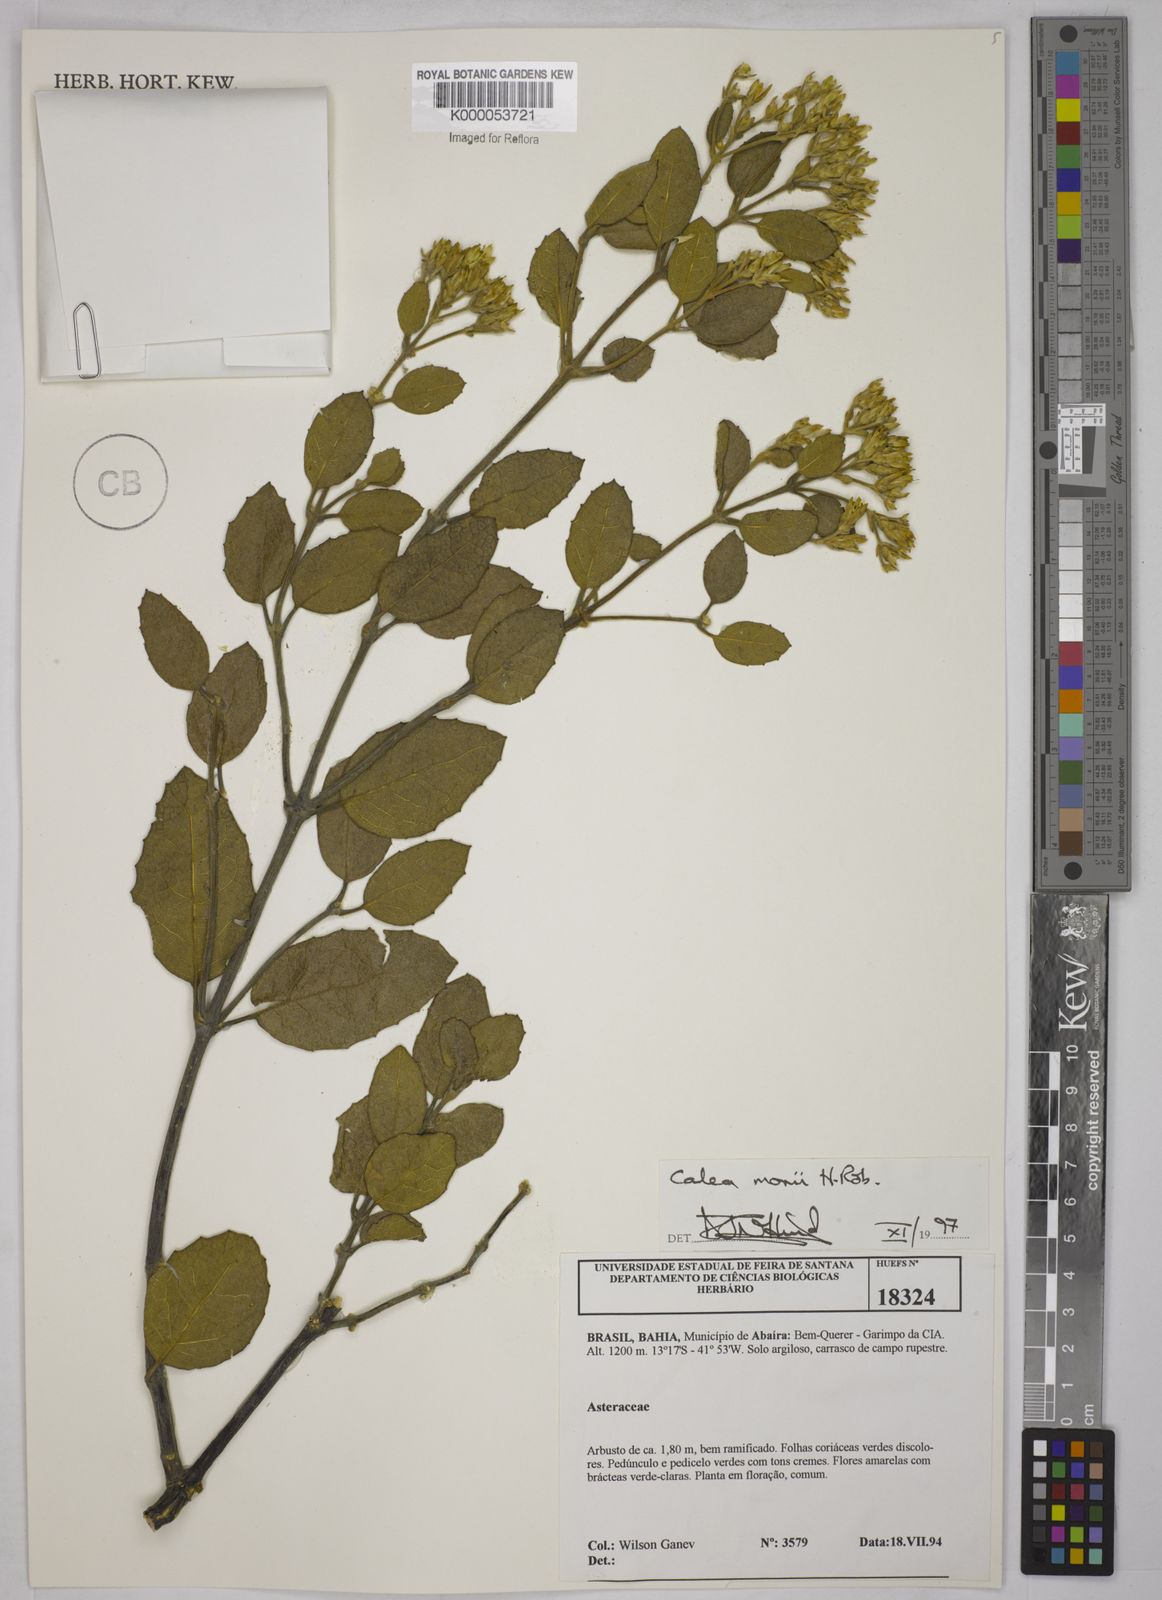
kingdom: Plantae
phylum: Tracheophyta
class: Magnoliopsida
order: Asterales
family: Asteraceae
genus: Calea
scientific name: Calea morii
